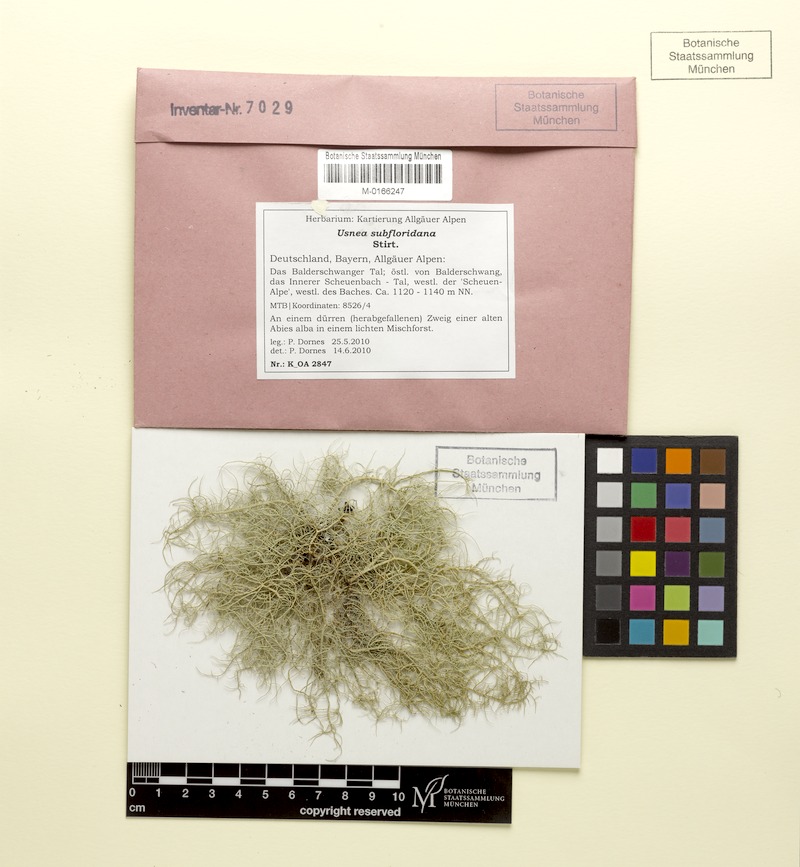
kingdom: Fungi
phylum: Ascomycota
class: Lecanoromycetes
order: Lecanorales
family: Parmeliaceae
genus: Usnea
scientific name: Usnea subfloridana
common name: Boreal beard lichen
